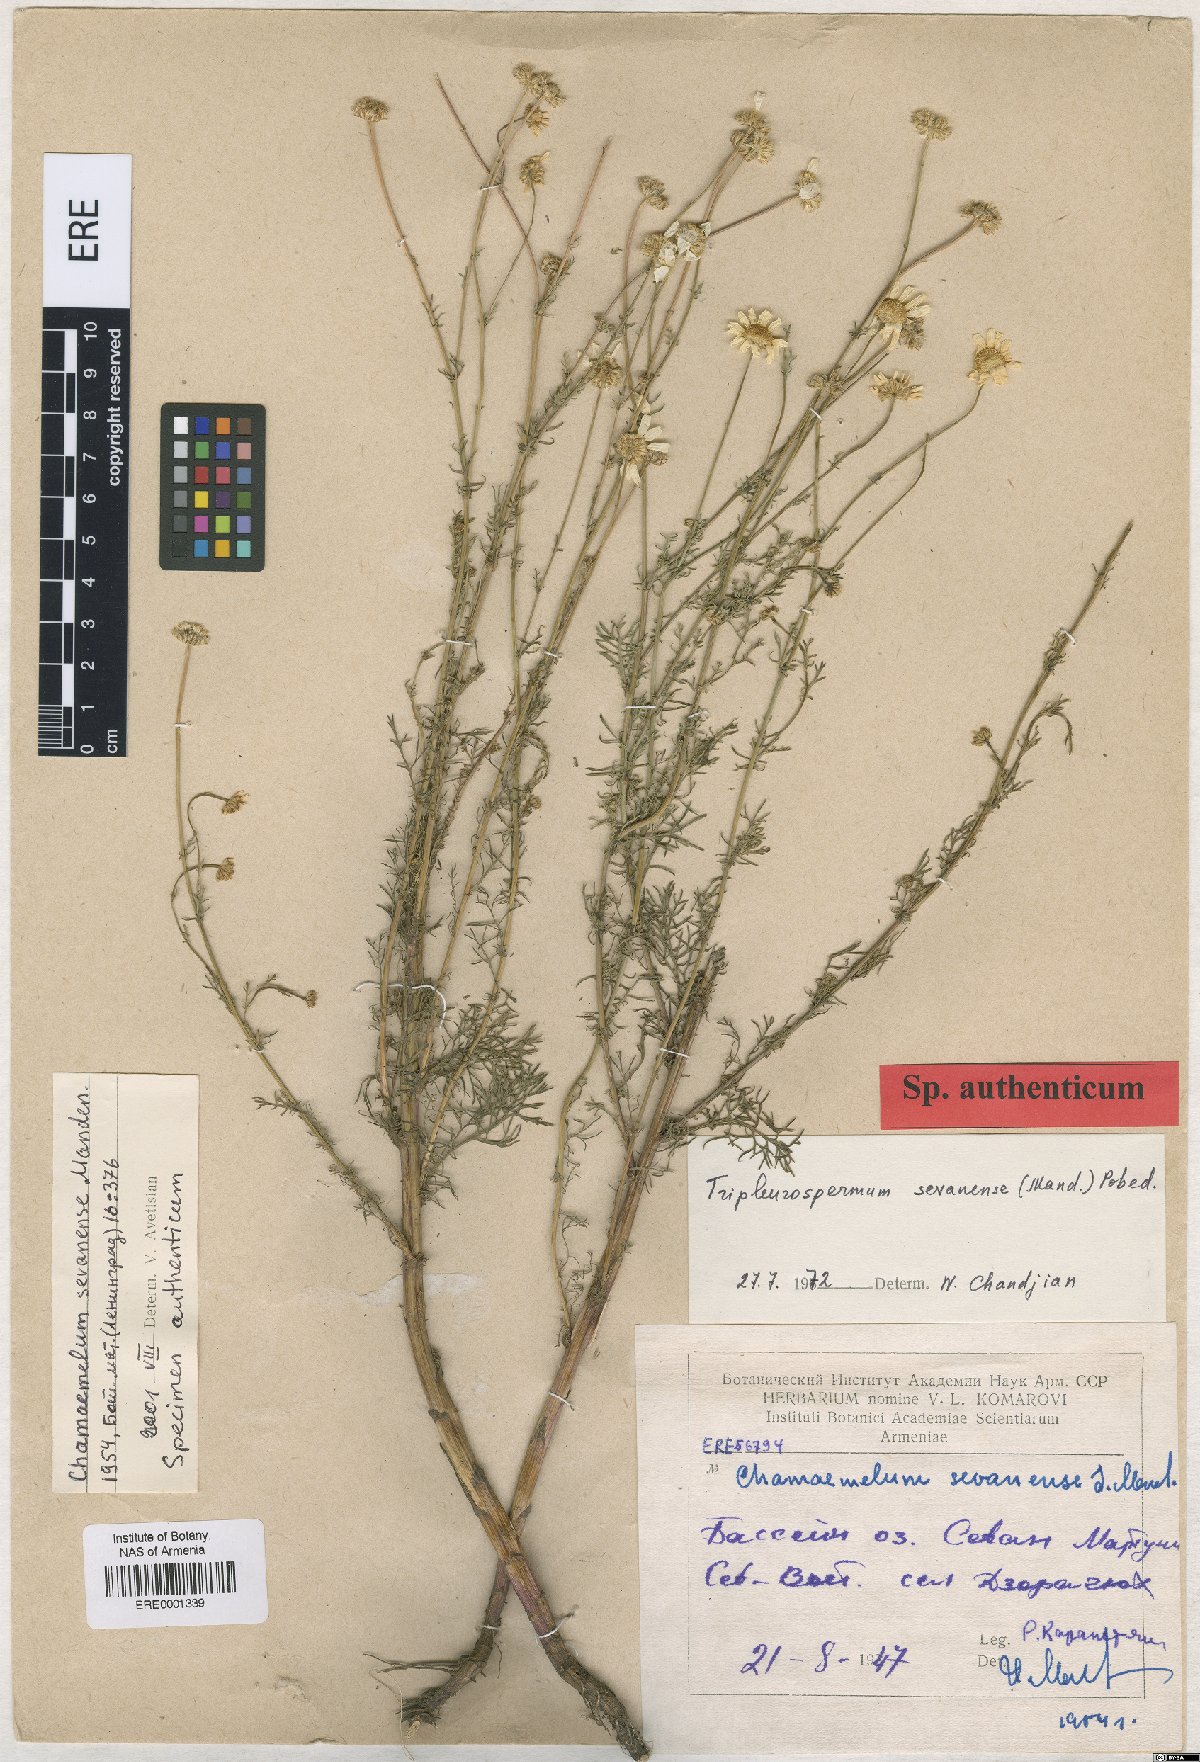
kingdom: Plantae
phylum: Tracheophyta
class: Magnoliopsida
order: Asterales
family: Asteraceae
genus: Tripleurospermum
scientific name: Tripleurospermum sevanense
